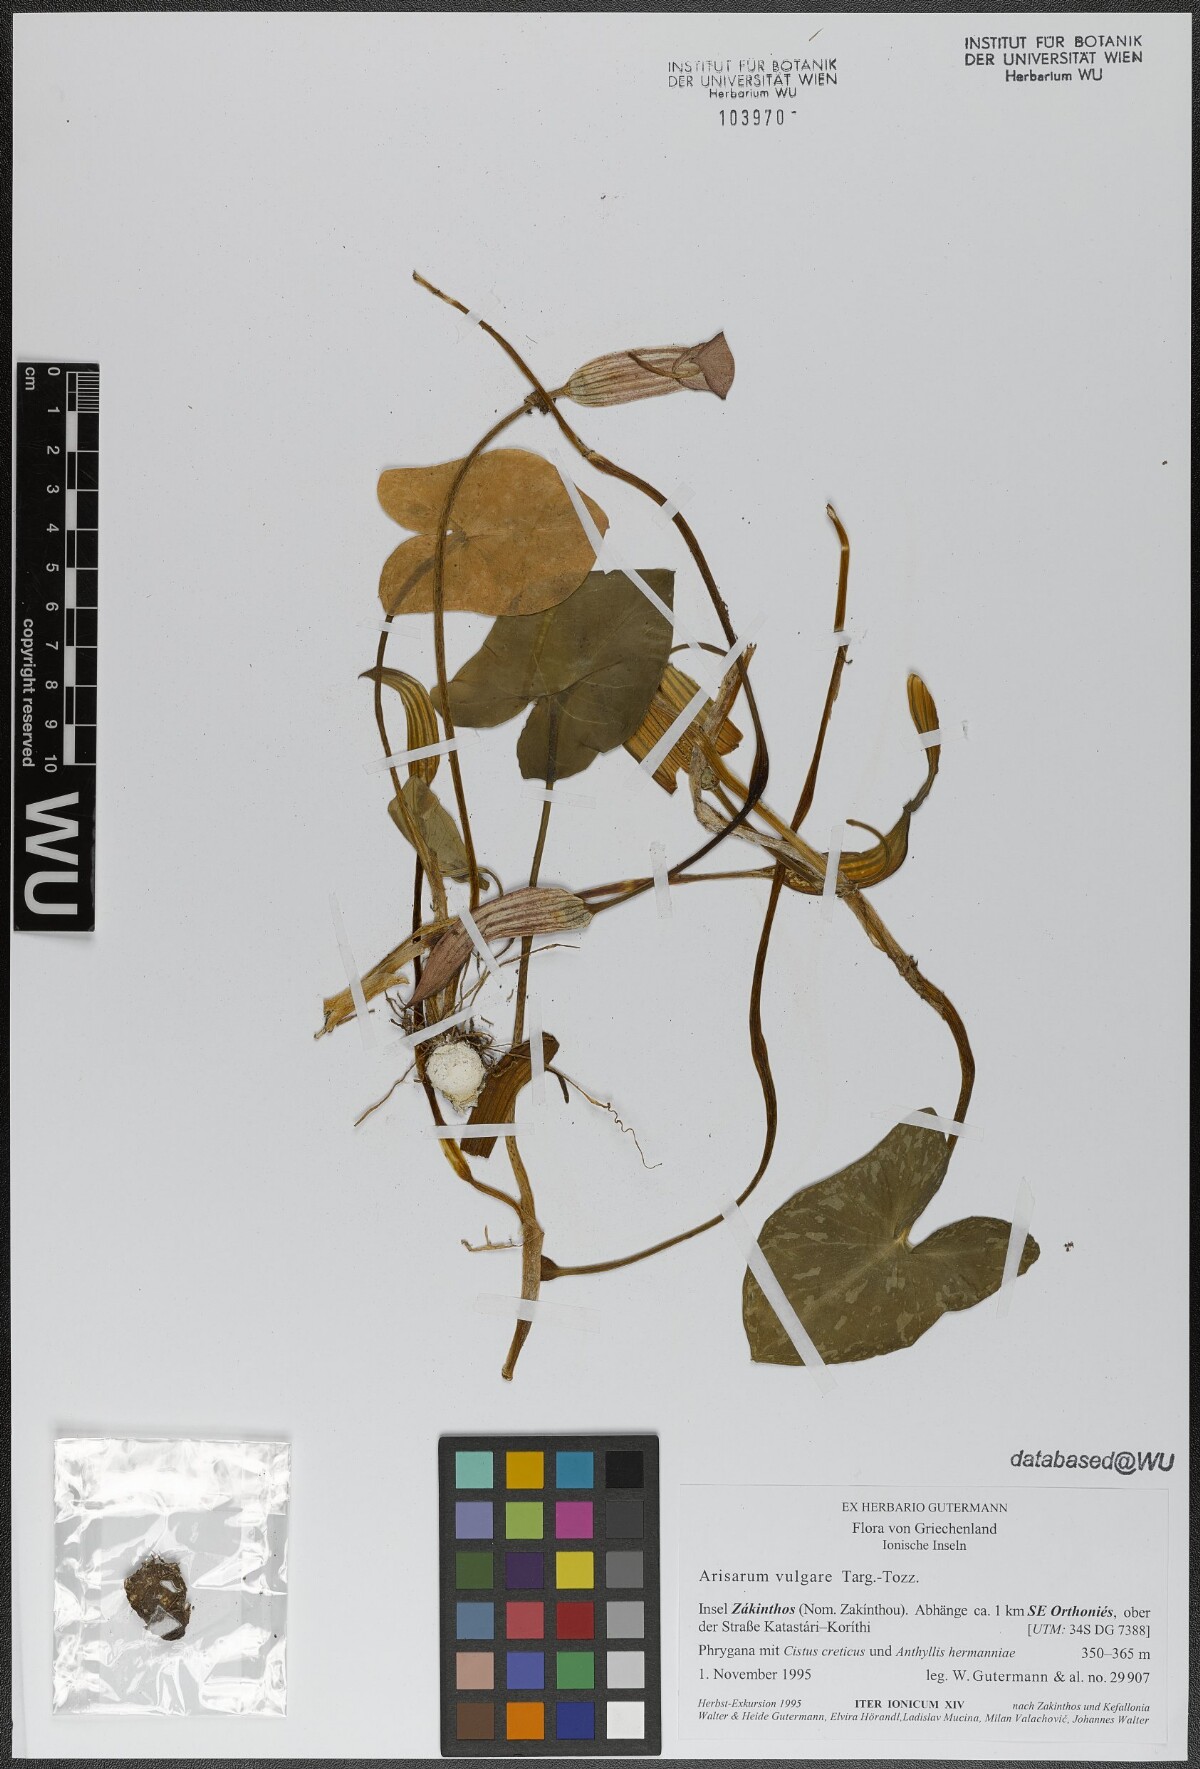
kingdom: Plantae
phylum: Tracheophyta
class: Liliopsida
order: Alismatales
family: Araceae
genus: Arisarum
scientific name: Arisarum vulgare
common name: Common arisarum
